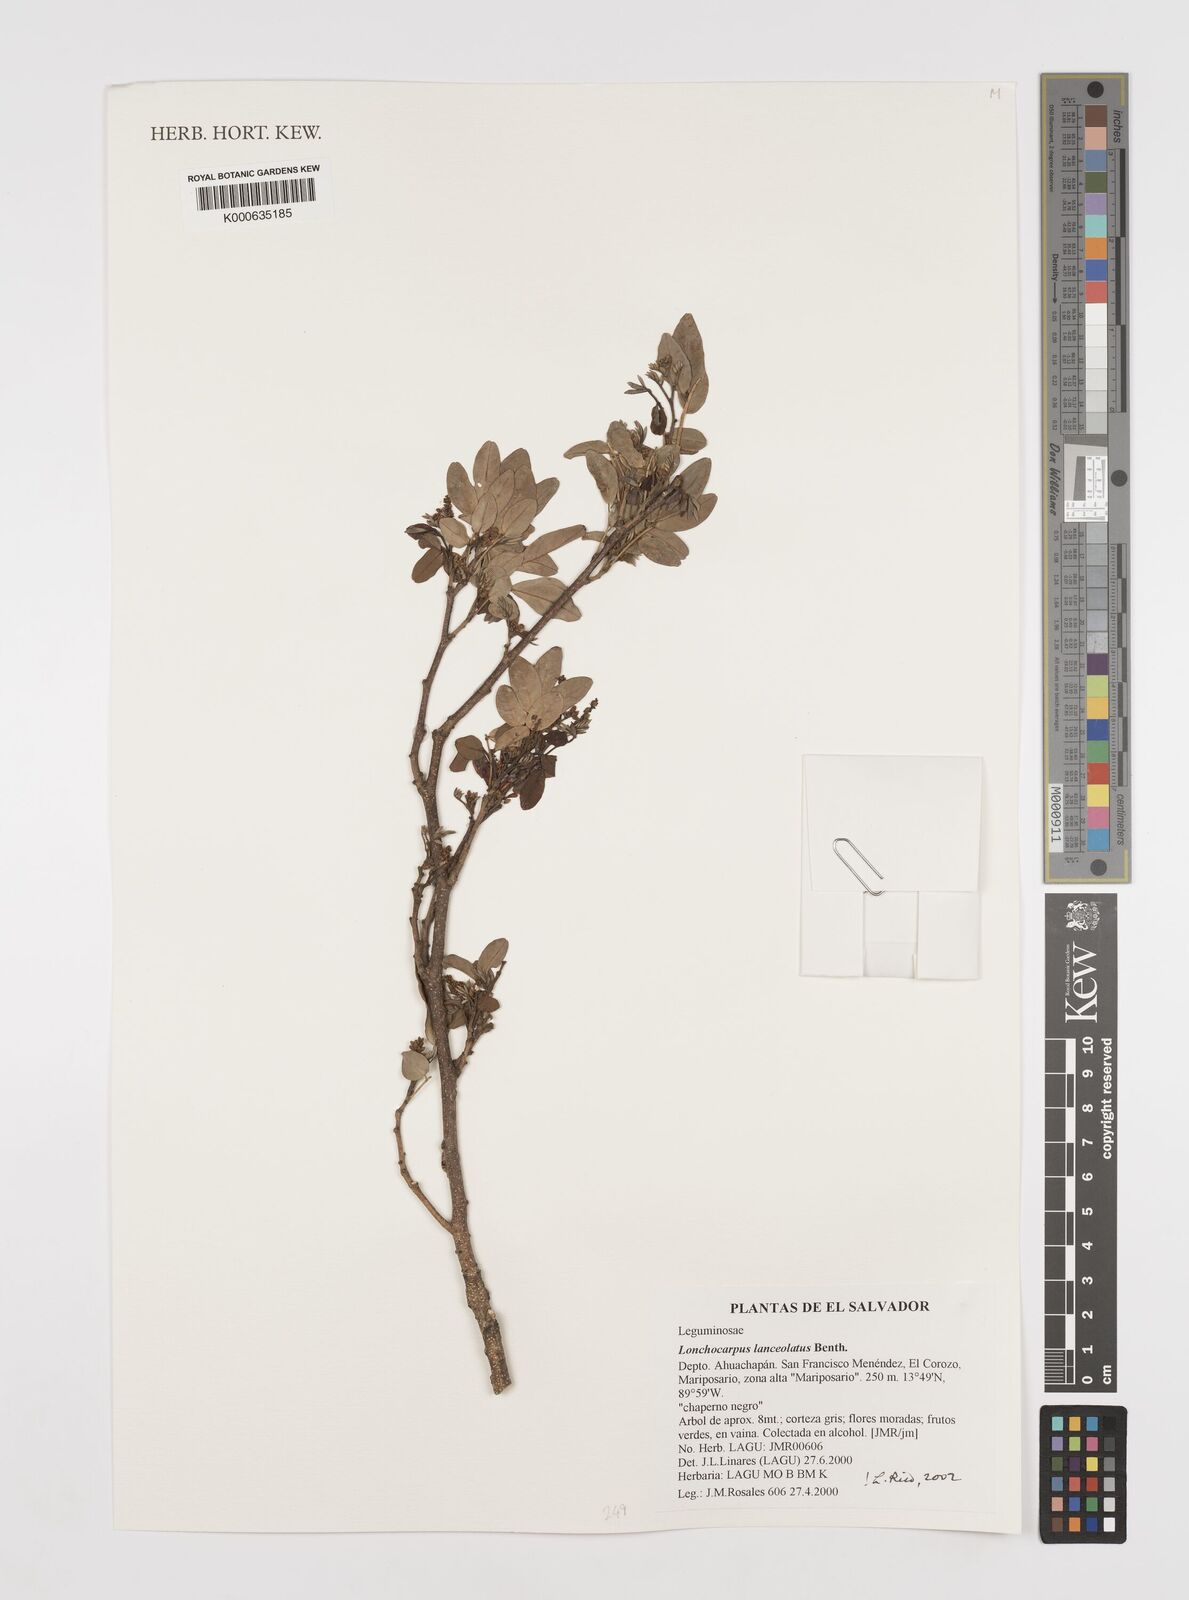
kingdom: Plantae
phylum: Tracheophyta
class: Magnoliopsida
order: Fabales
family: Fabaceae
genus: Lonchocarpus
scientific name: Lonchocarpus lanceolatus
